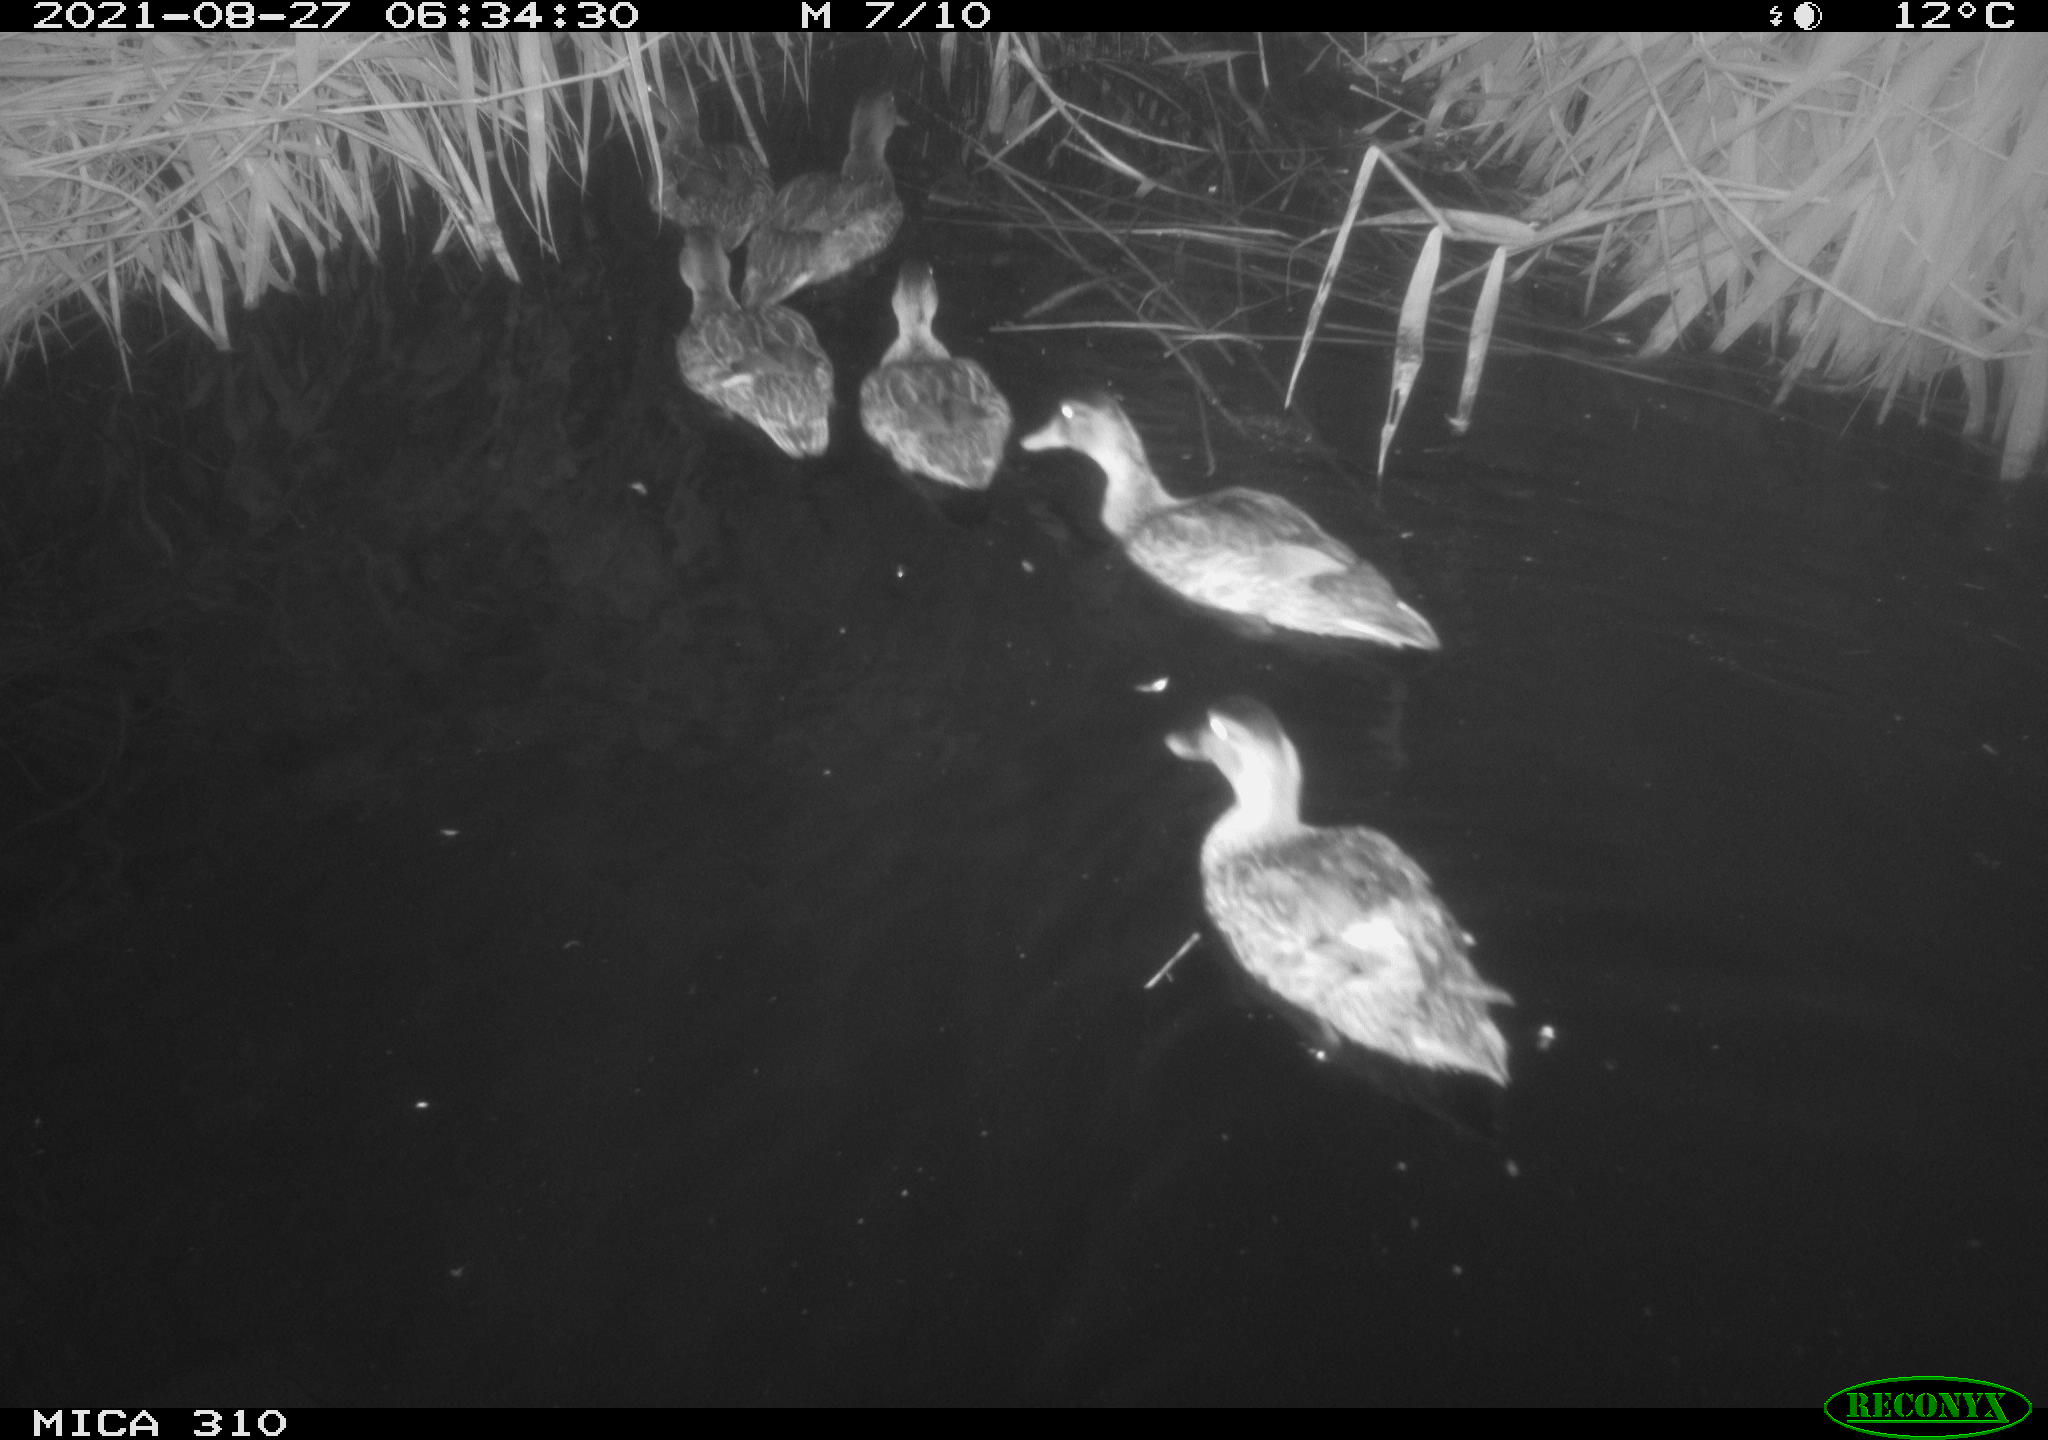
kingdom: Animalia
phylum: Chordata
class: Aves
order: Pelecaniformes
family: Ardeidae
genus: Ardea
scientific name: Ardea
